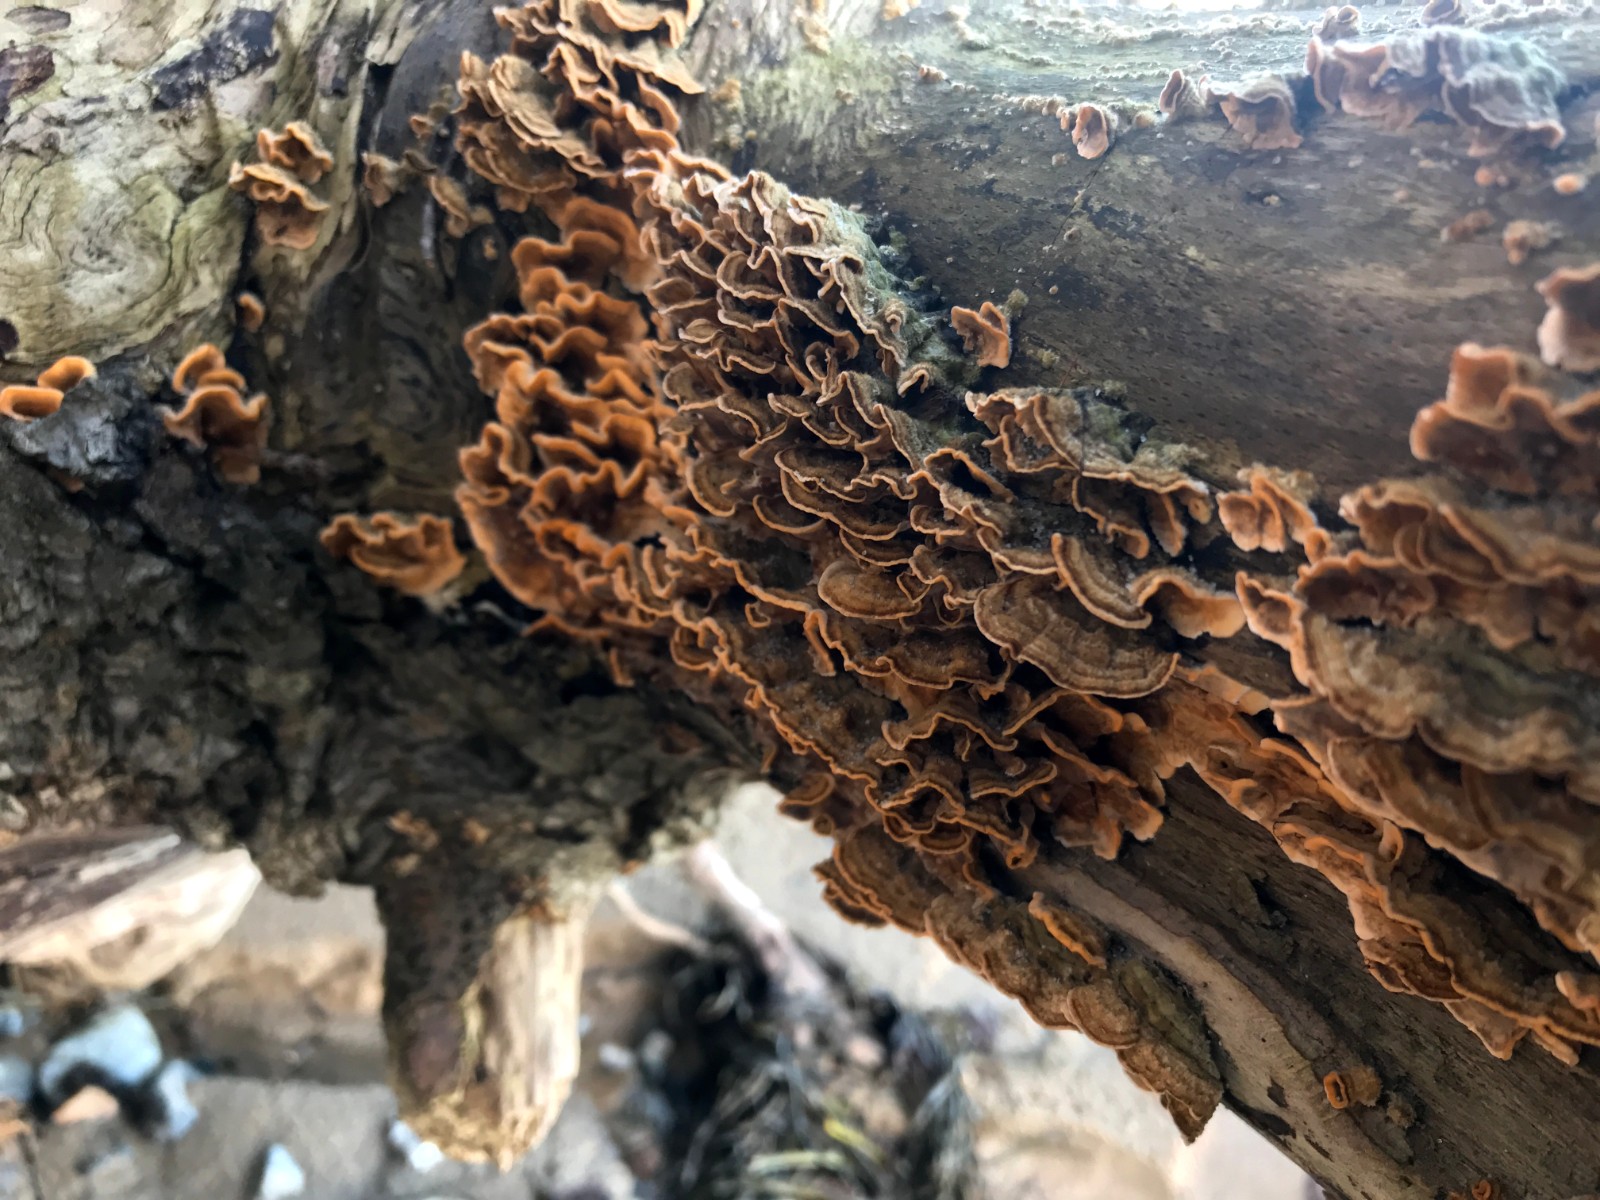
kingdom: Fungi
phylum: Basidiomycota
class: Agaricomycetes
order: Russulales
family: Stereaceae
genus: Stereum
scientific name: Stereum hirsutum
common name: håret lædersvamp
